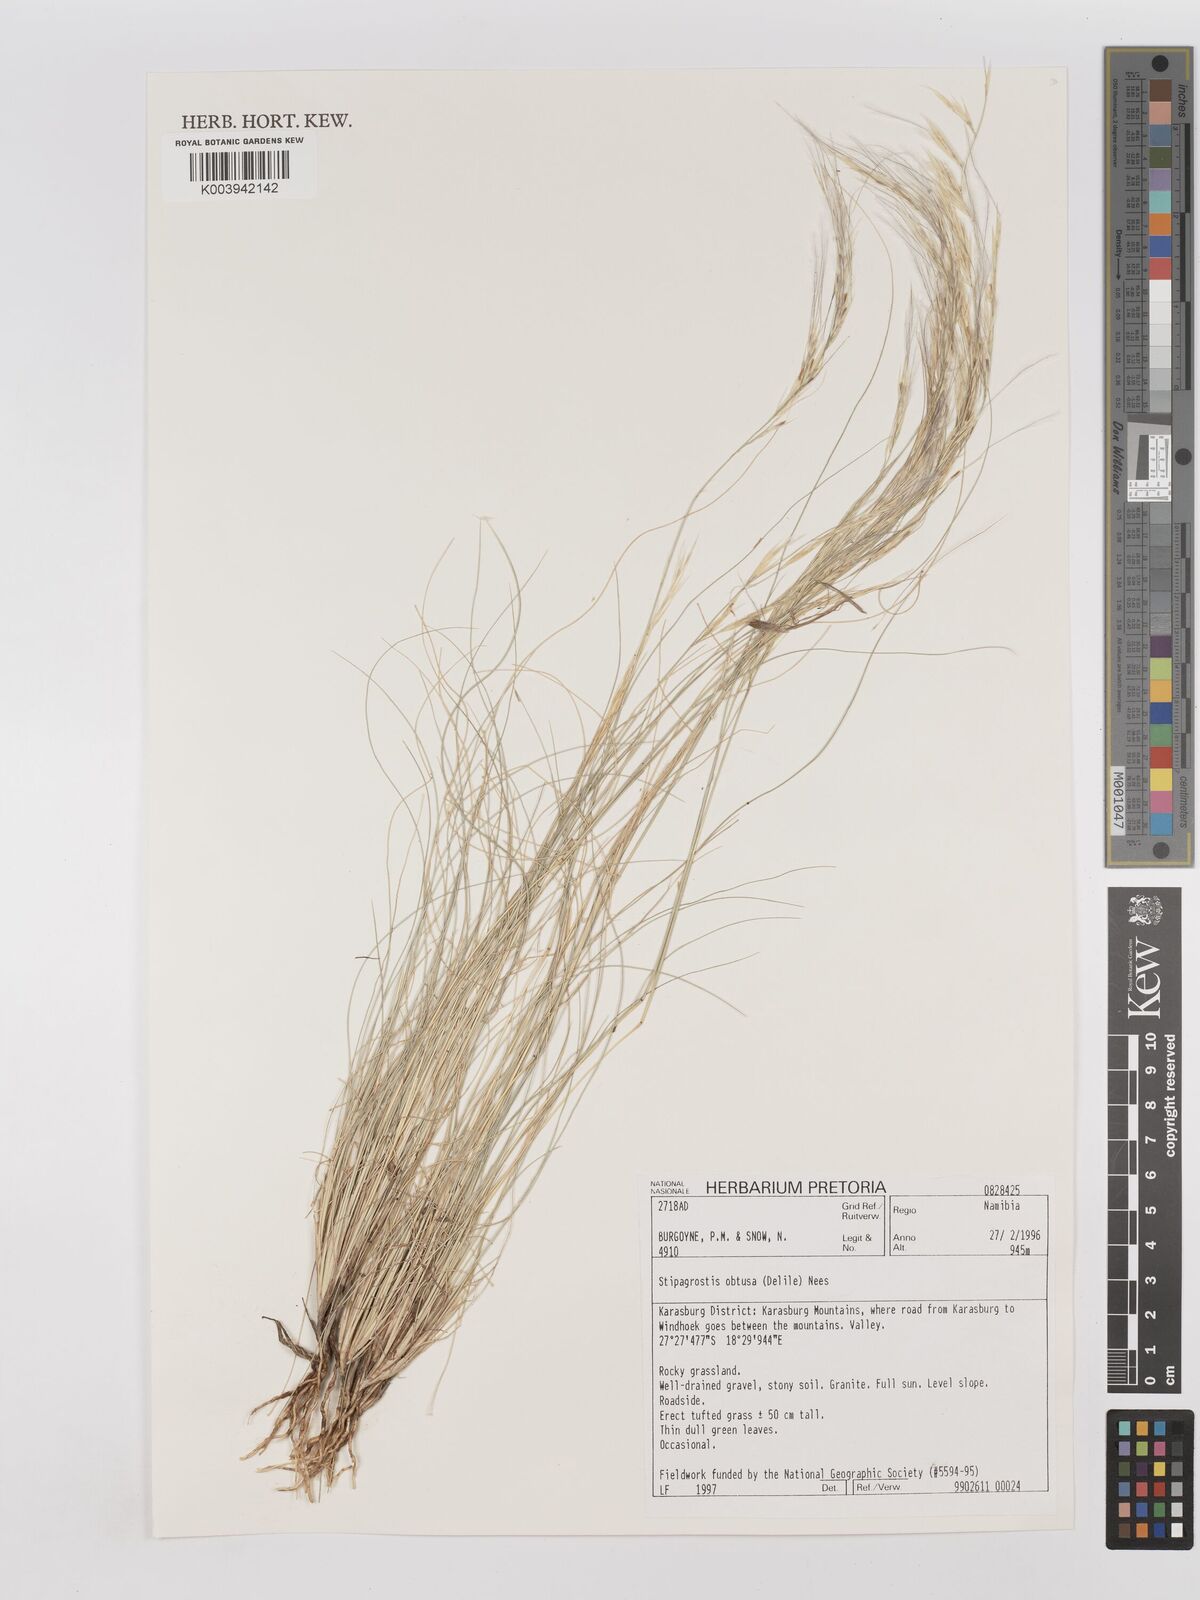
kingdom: Plantae
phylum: Tracheophyta
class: Liliopsida
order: Poales
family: Poaceae
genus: Stipagrostis
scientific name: Stipagrostis obtusa
